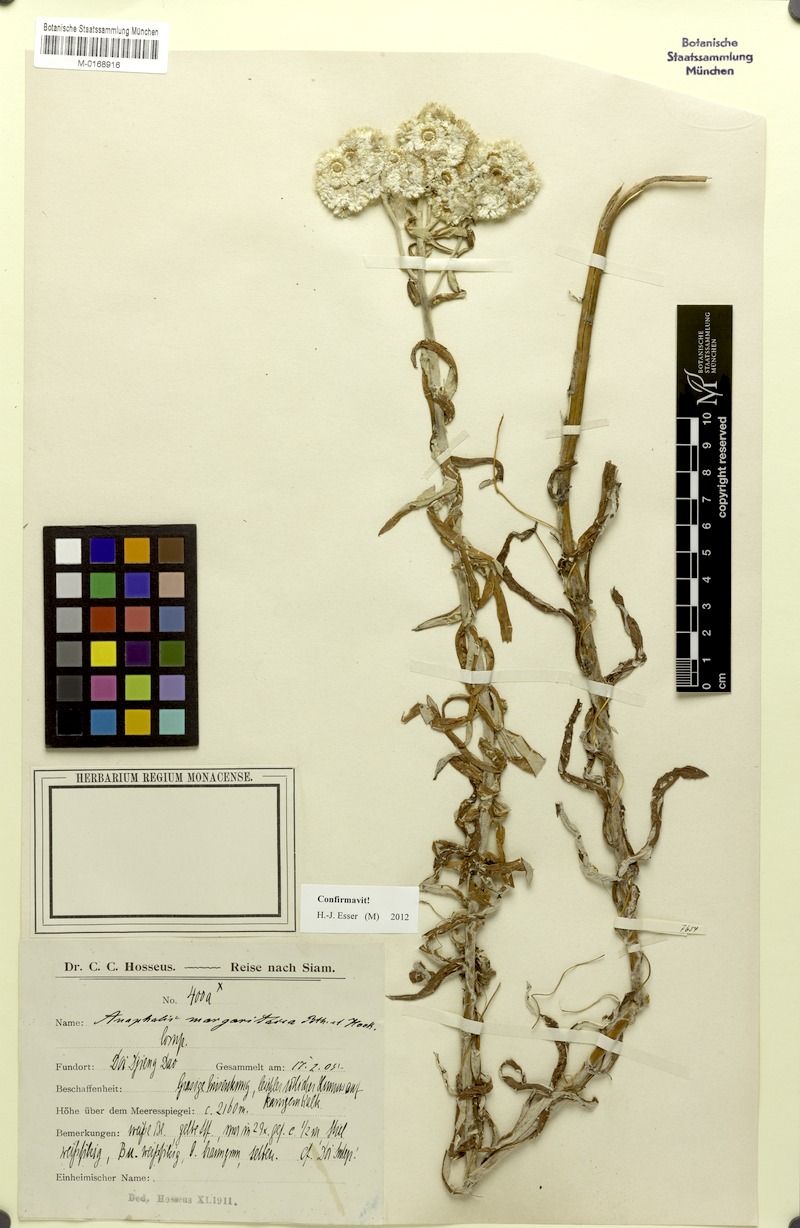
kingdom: Plantae
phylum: Tracheophyta
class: Magnoliopsida
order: Asterales
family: Asteraceae
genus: Anaphalis
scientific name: Anaphalis margaritacea
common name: Pearly everlasting
